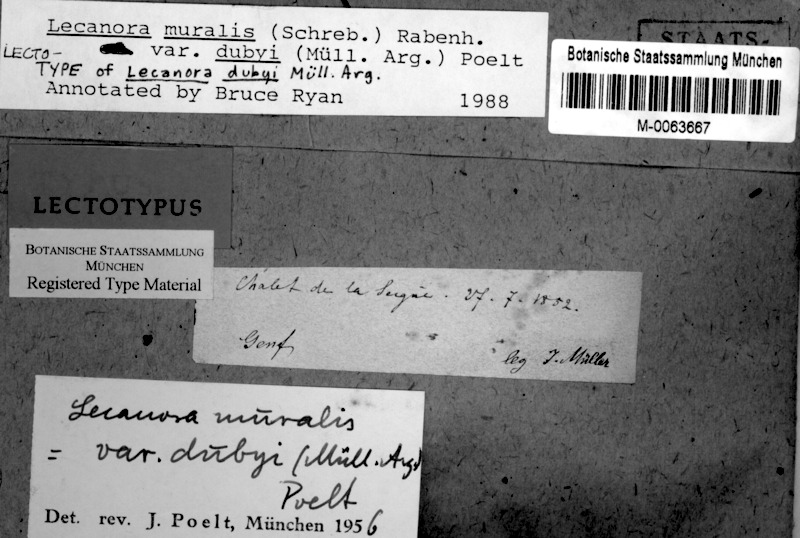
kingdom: Fungi
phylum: Ascomycota
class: Lecanoromycetes
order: Lecanorales
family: Lecanoraceae
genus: Protoparmeliopsis
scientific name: Protoparmeliopsis muralis
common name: Stonewall rim lichen
